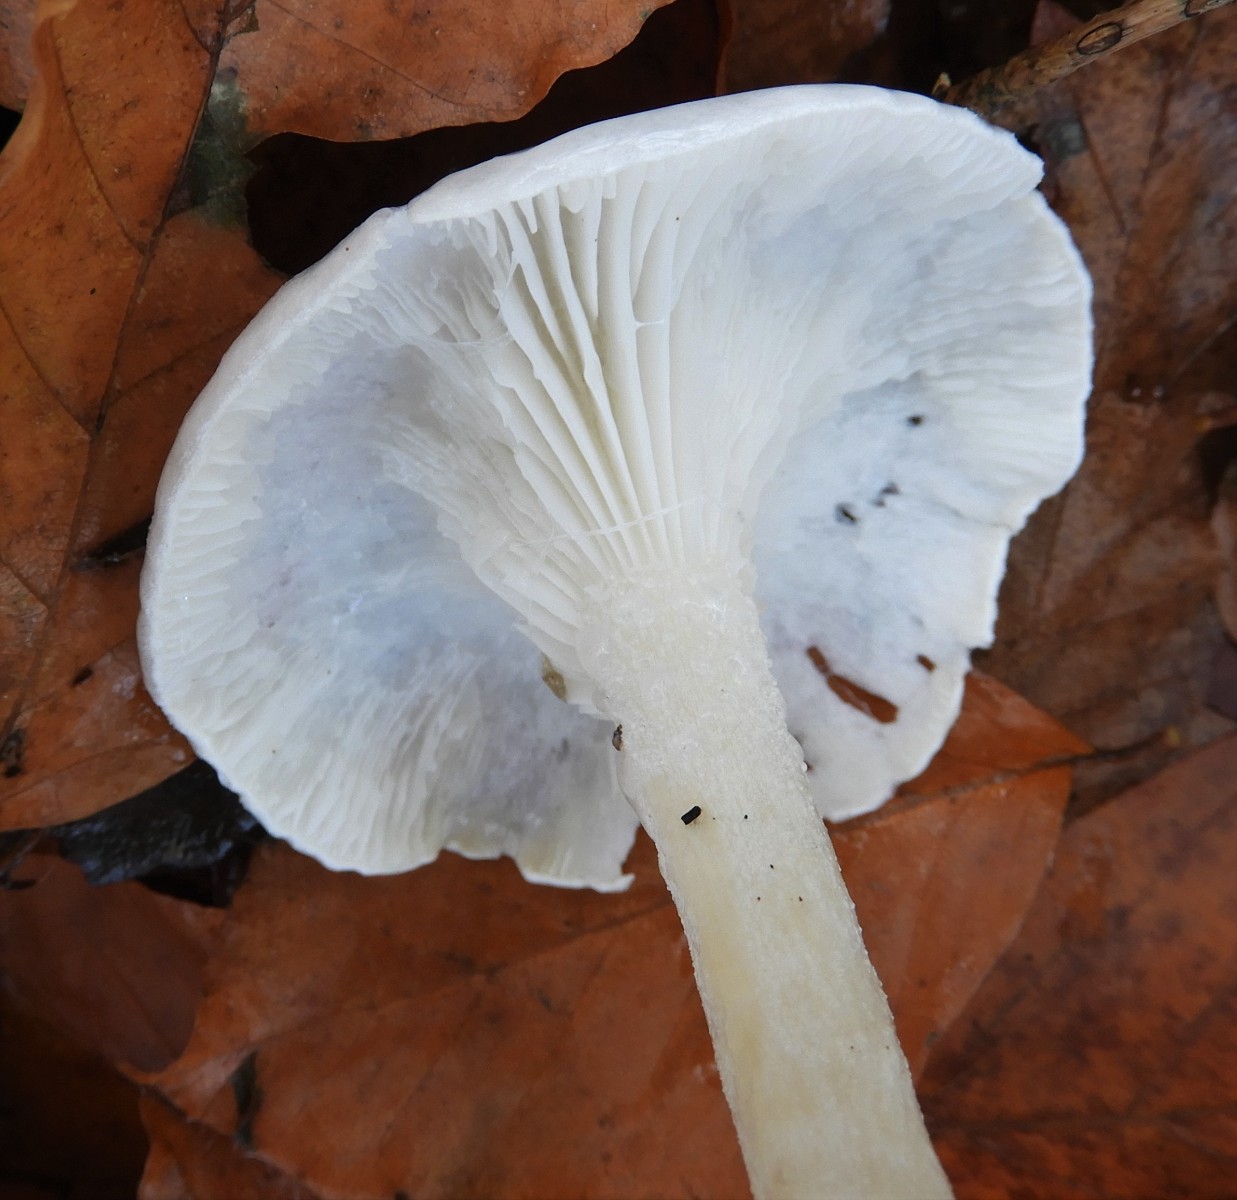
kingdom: Fungi
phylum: Basidiomycota
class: Agaricomycetes
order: Agaricales
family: Hygrophoraceae
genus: Hygrophorus
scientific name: Hygrophorus eburneus
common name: elfenbens-sneglehat
